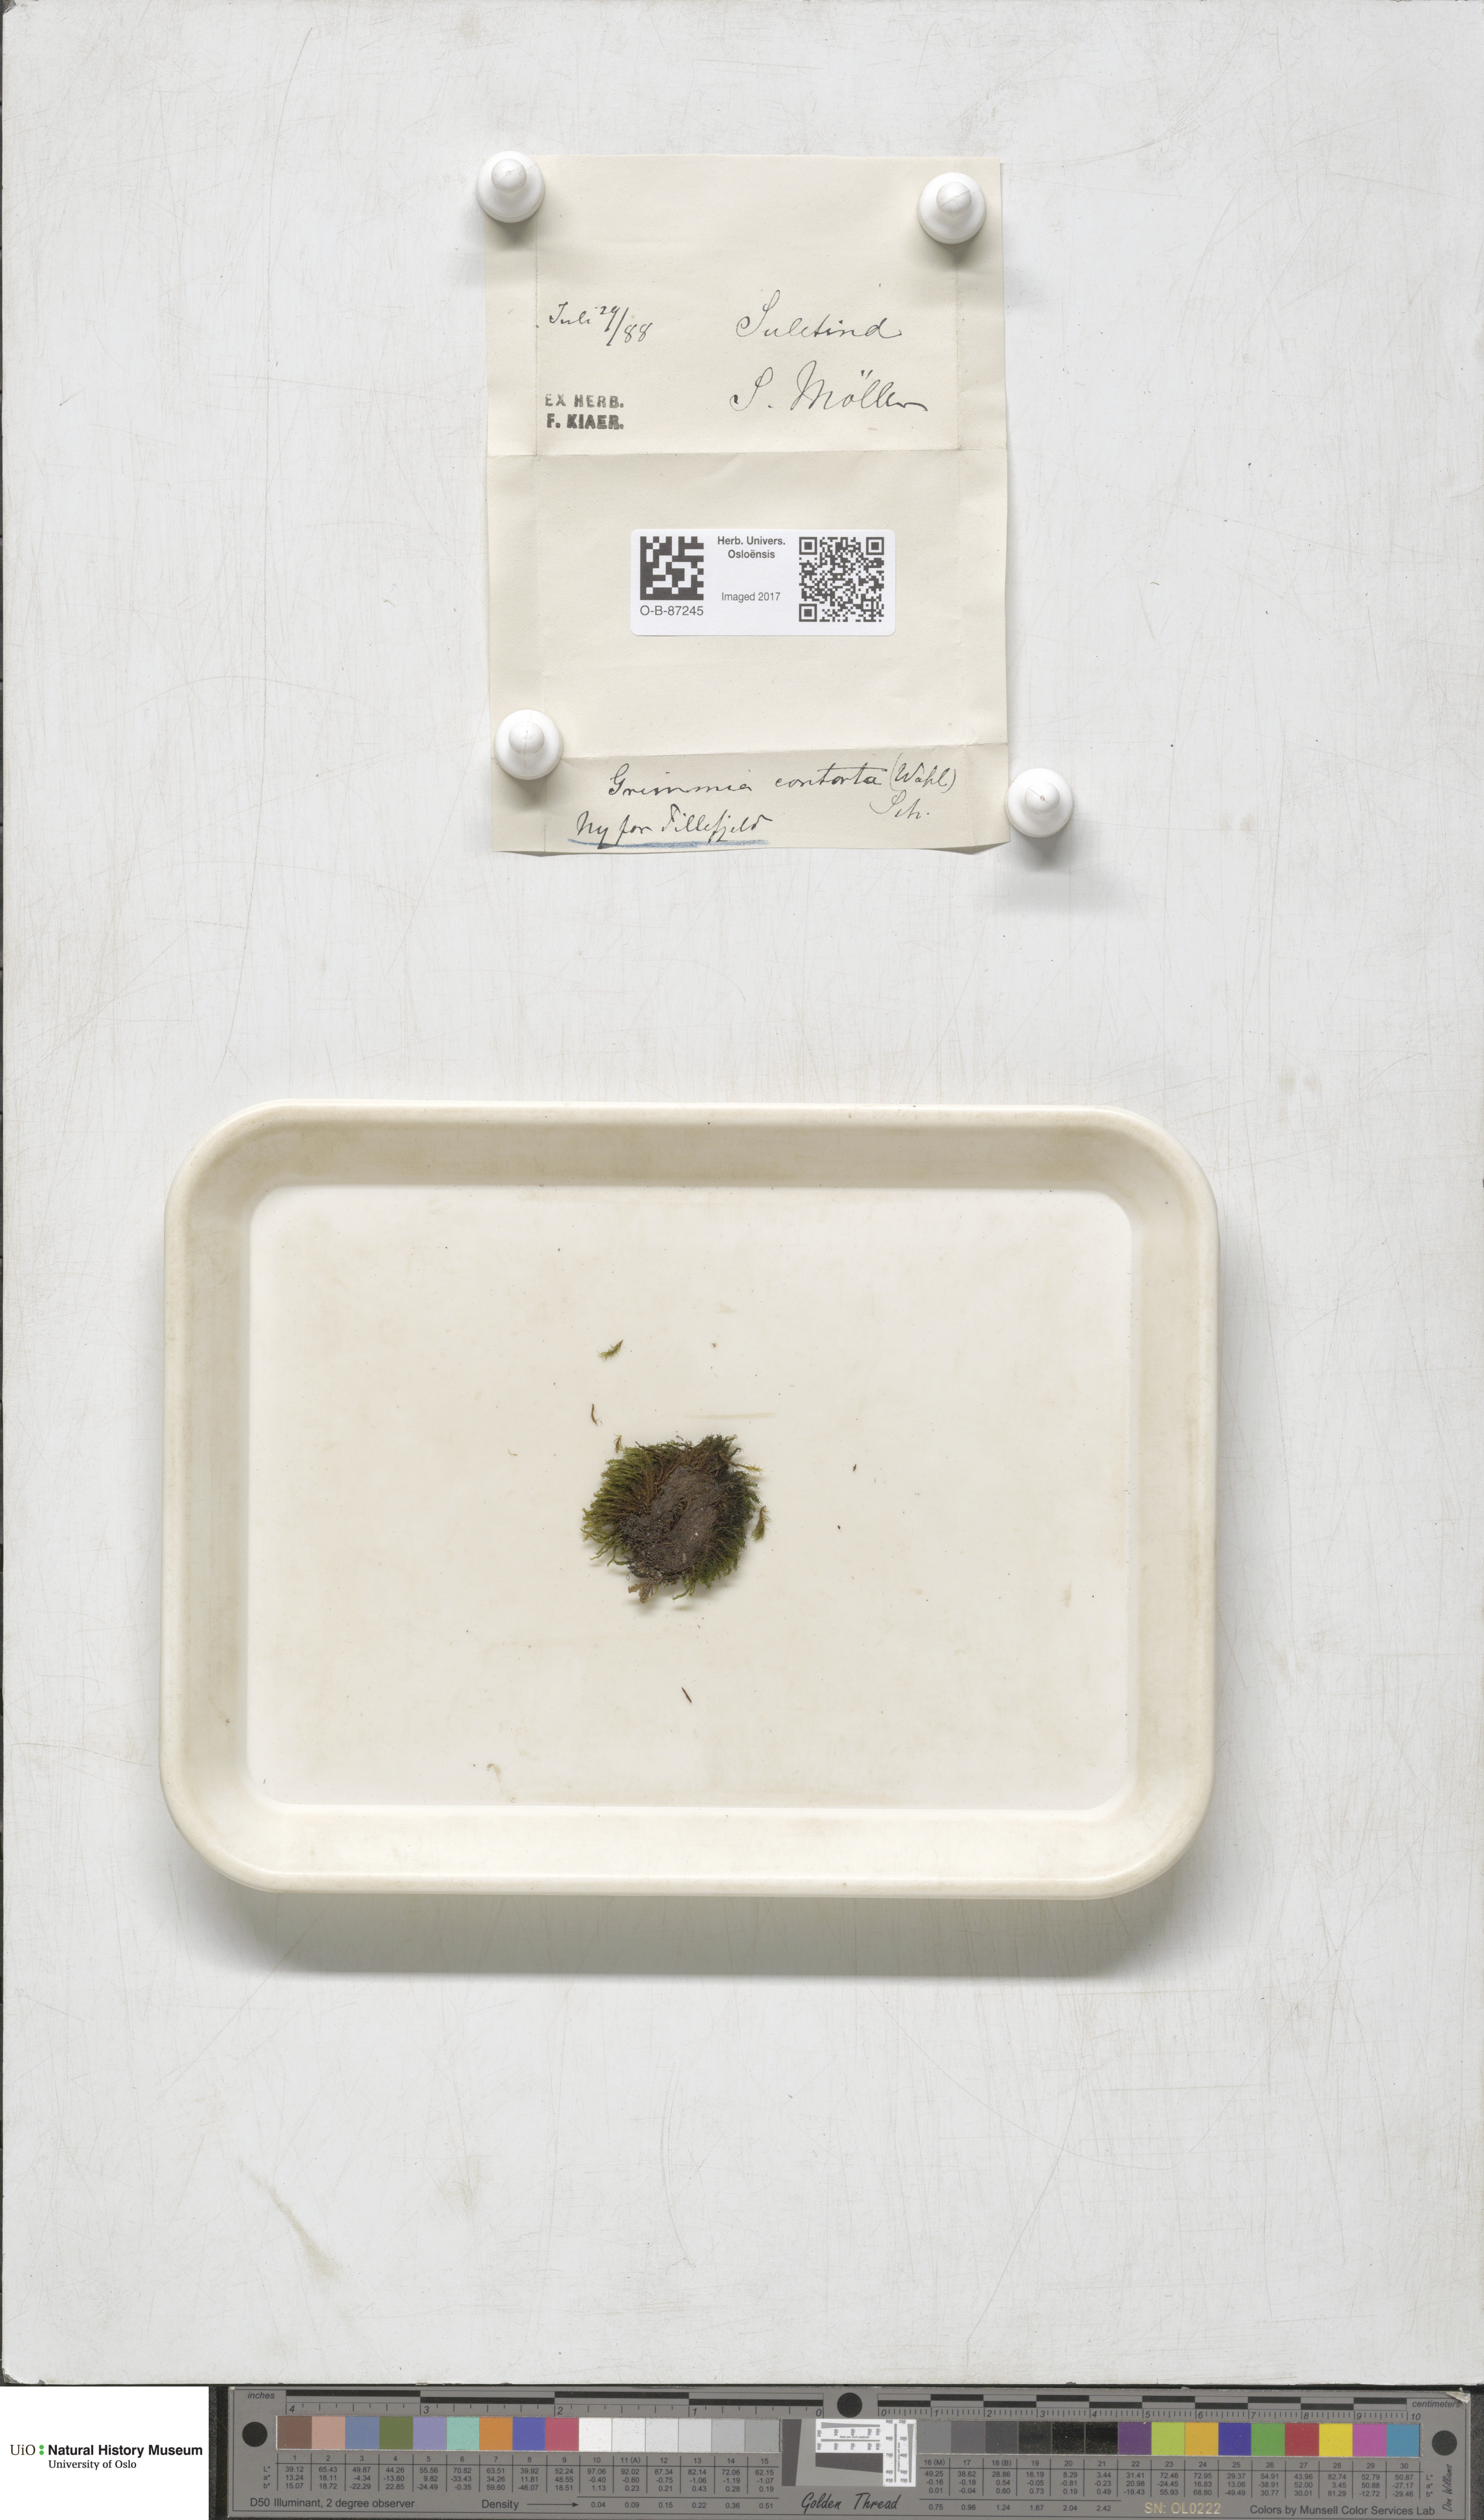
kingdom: Plantae
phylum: Bryophyta
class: Bryopsida
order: Grimmiales
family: Grimmiaceae
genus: Grimmia
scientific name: Grimmia incurva
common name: Black grimmia
